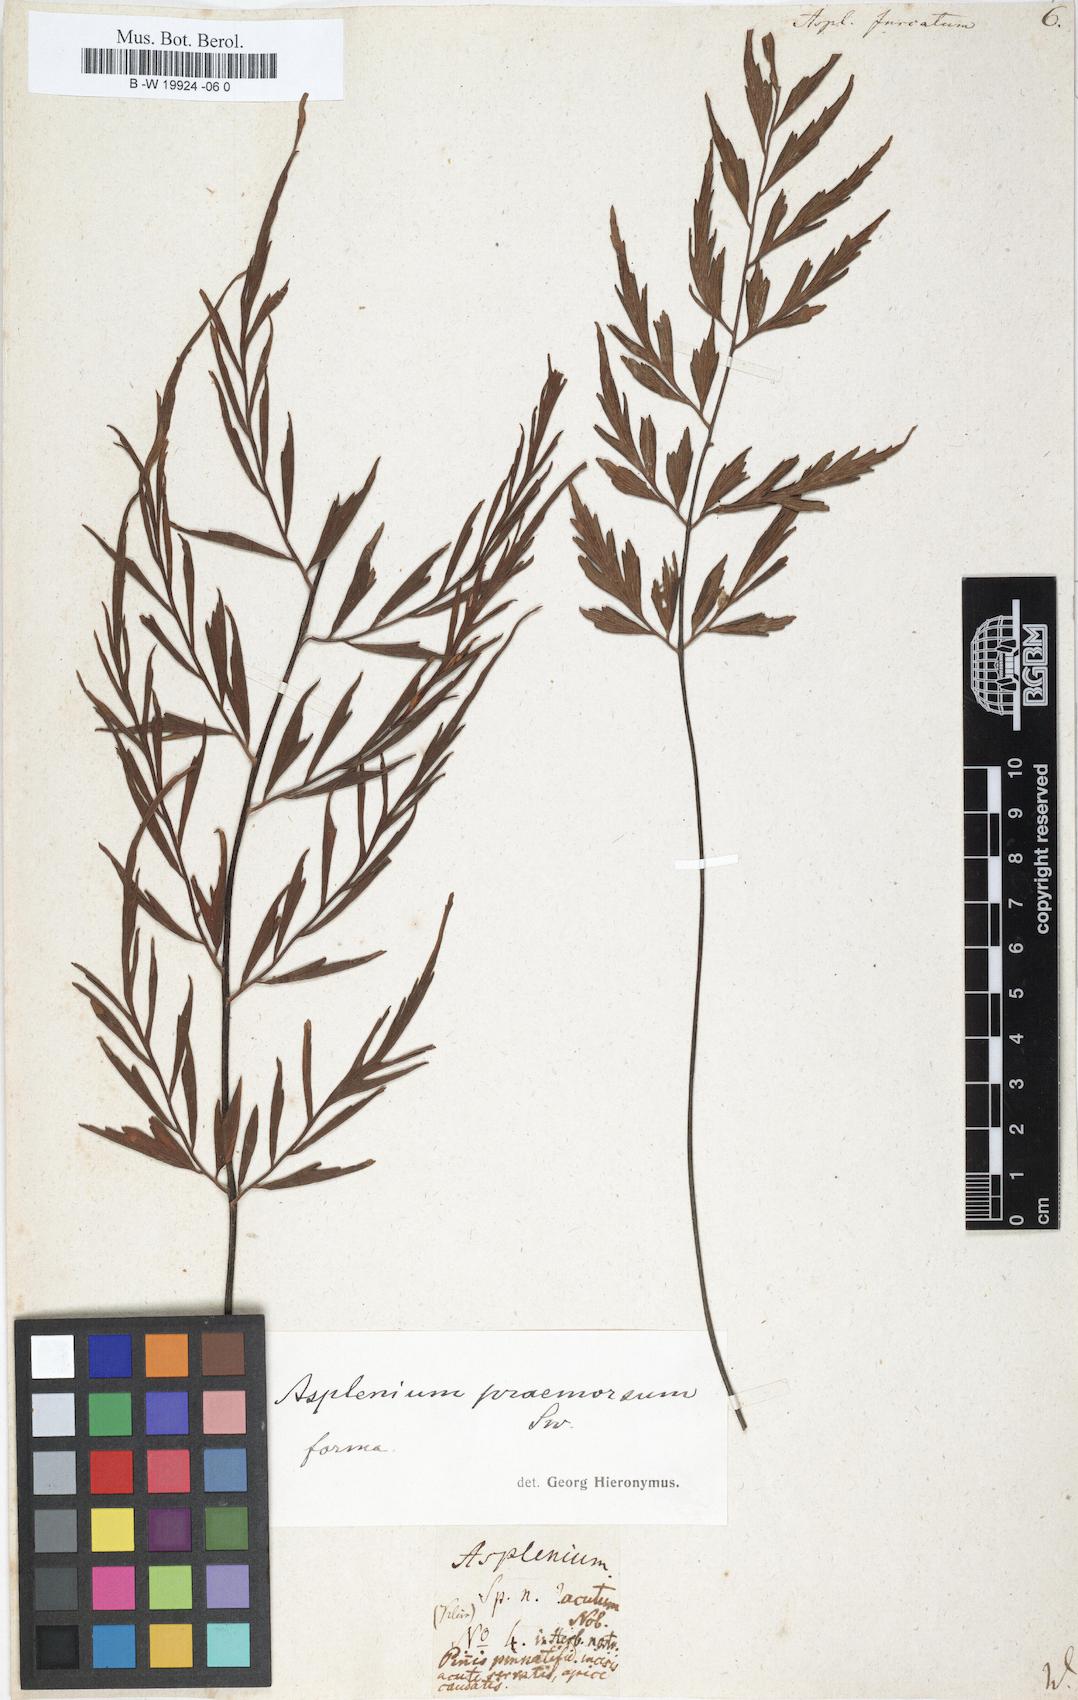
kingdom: Plantae
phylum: Tracheophyta
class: Polypodiopsida
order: Polypodiales
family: Aspleniaceae
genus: Asplenium
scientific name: Asplenium furcatum
